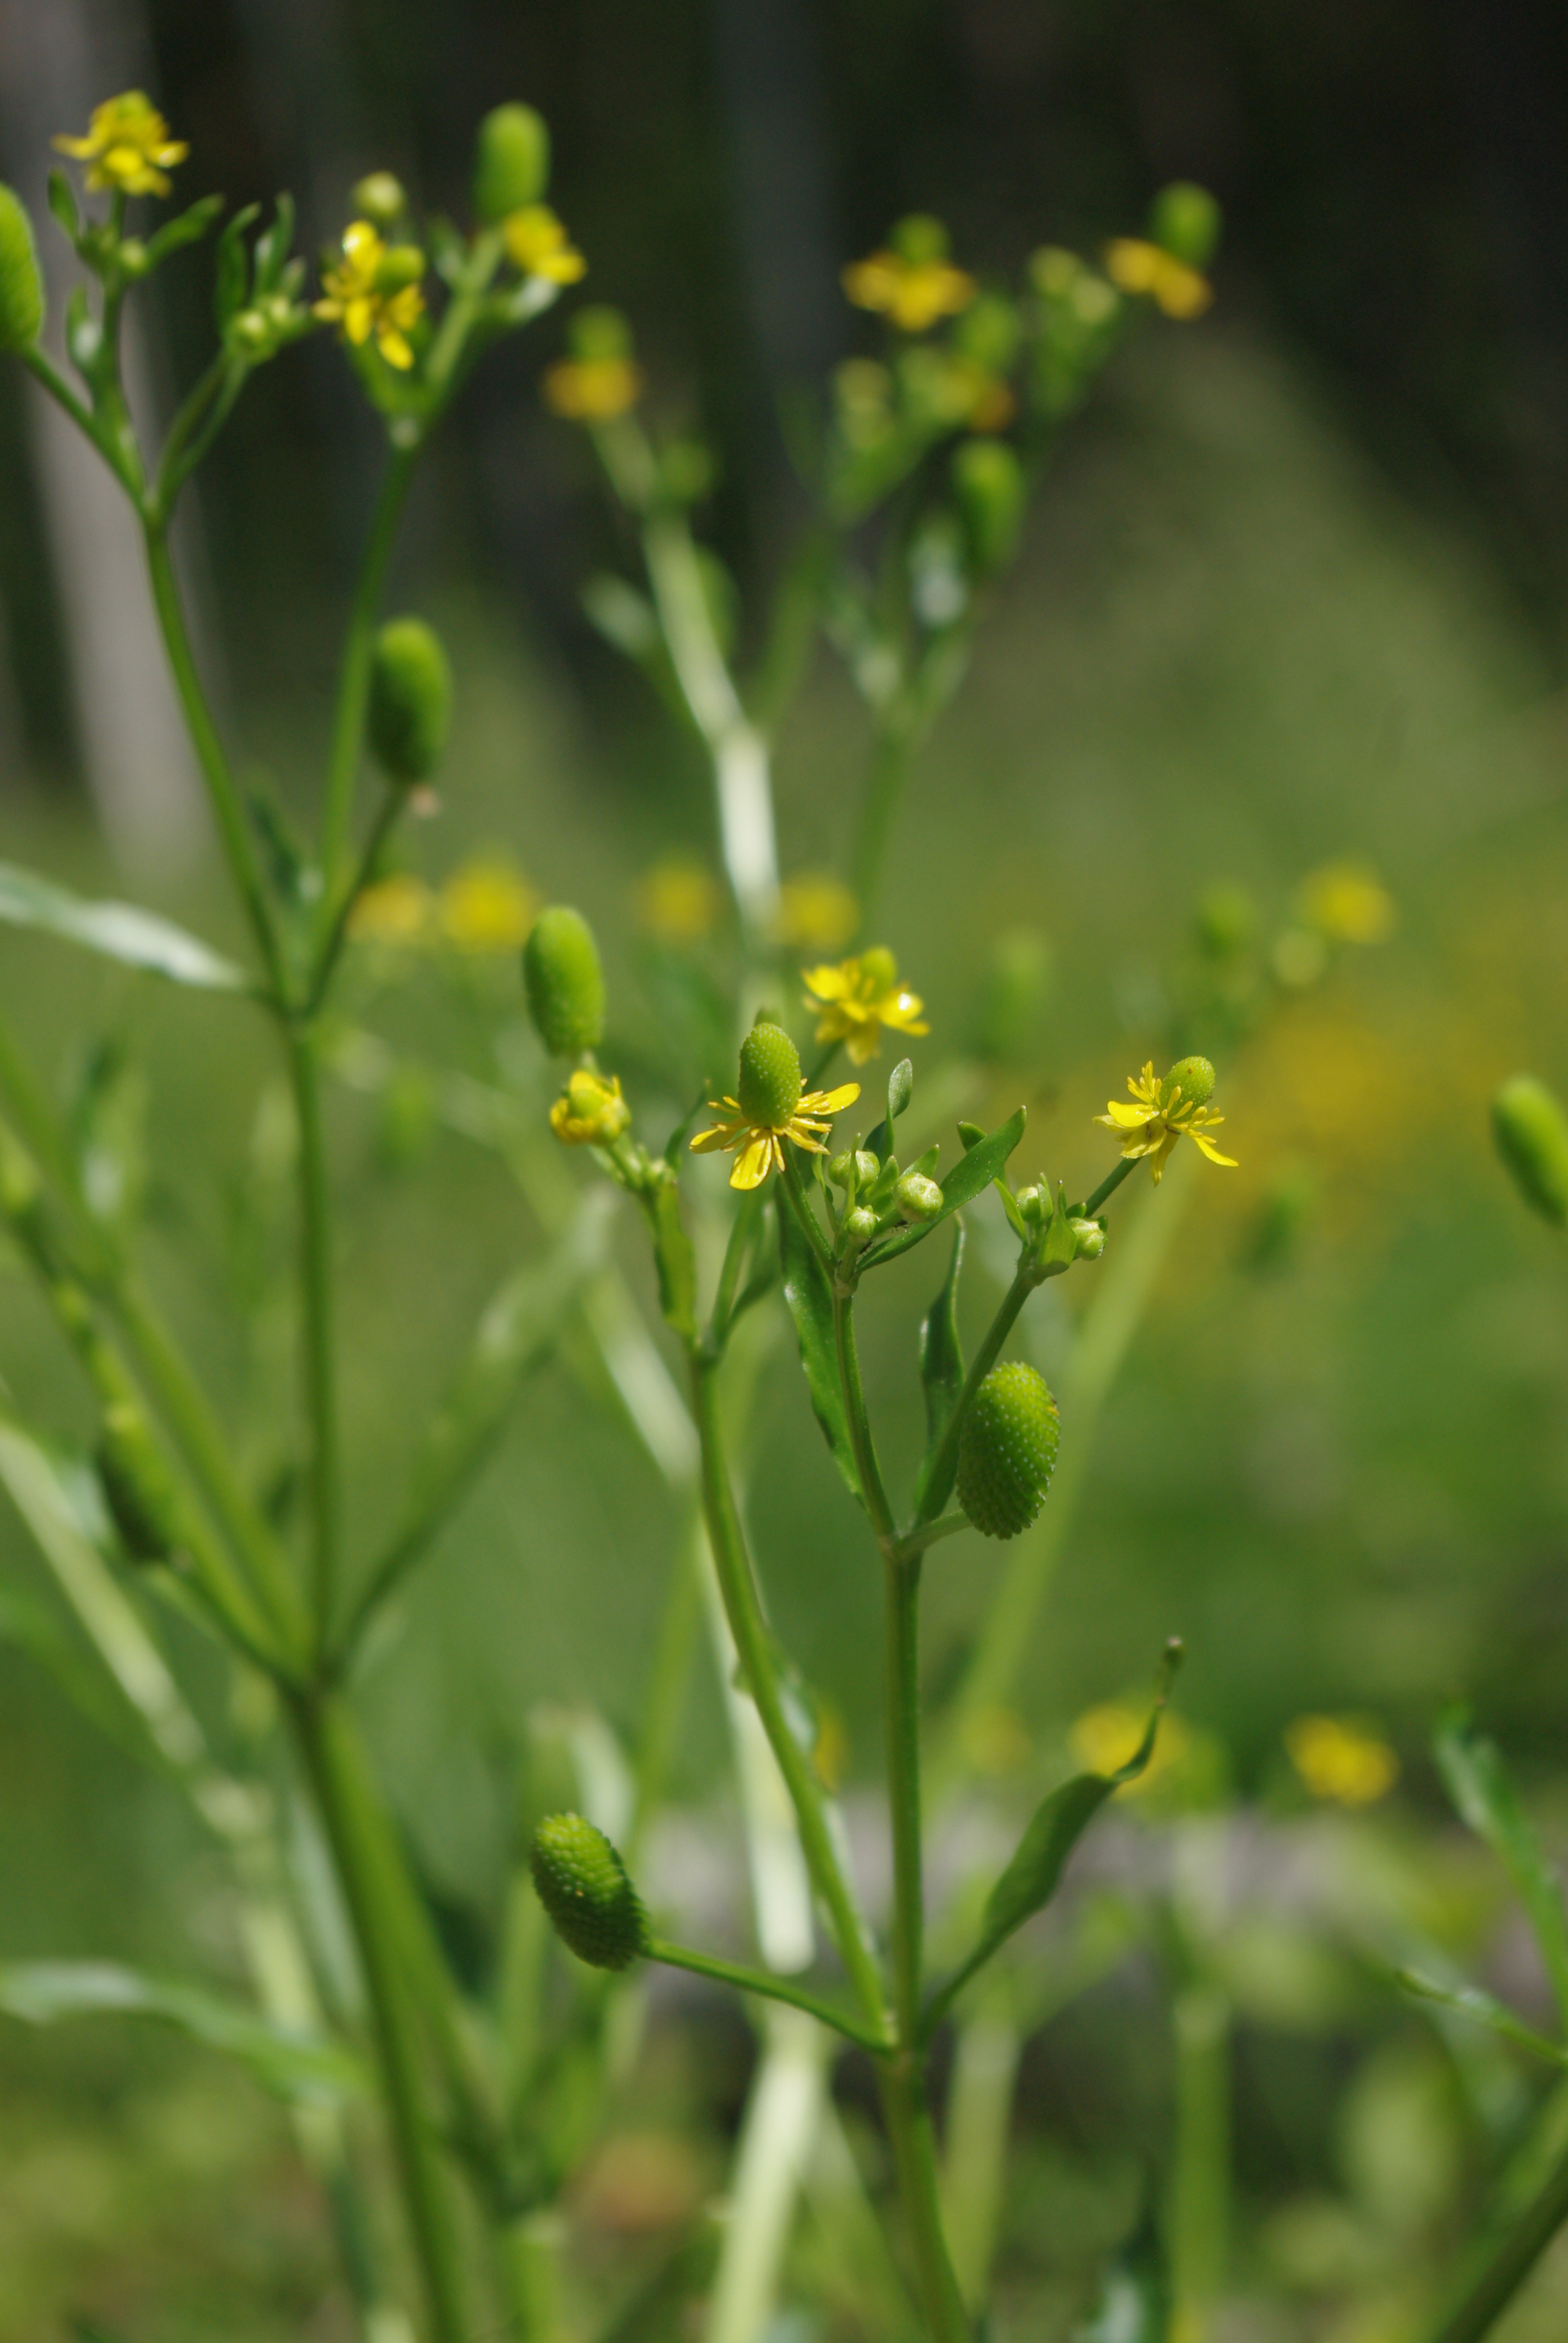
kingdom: Plantae
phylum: Tracheophyta
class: Magnoliopsida
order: Ranunculales
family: Ranunculaceae
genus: Ranunculus
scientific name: Ranunculus sceleratus
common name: Celery-leaved buttercup
